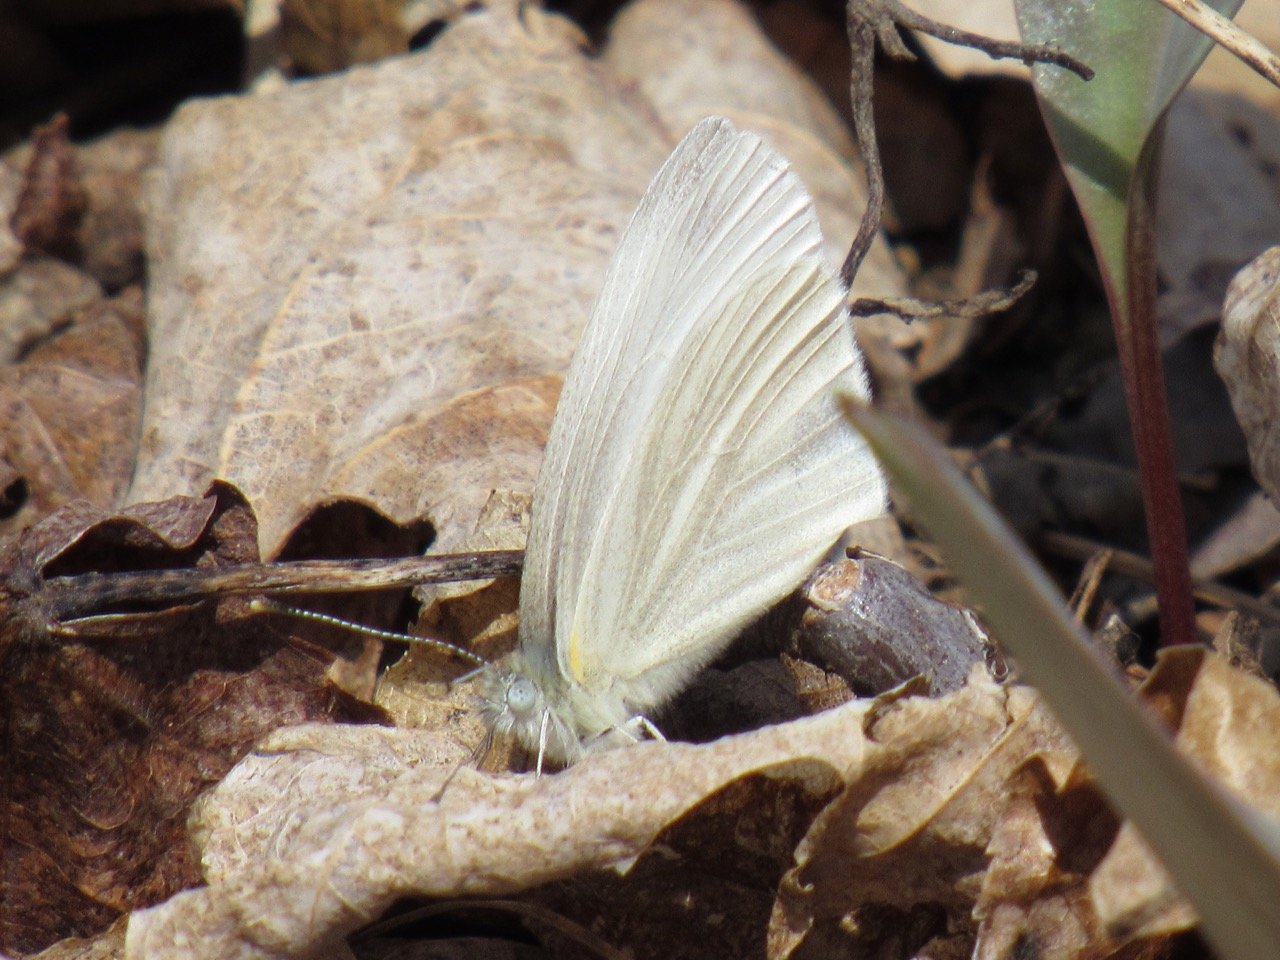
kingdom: Animalia
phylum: Arthropoda
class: Insecta
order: Lepidoptera
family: Pieridae
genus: Pieris
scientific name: Pieris virginiensis
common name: West Virginia White
